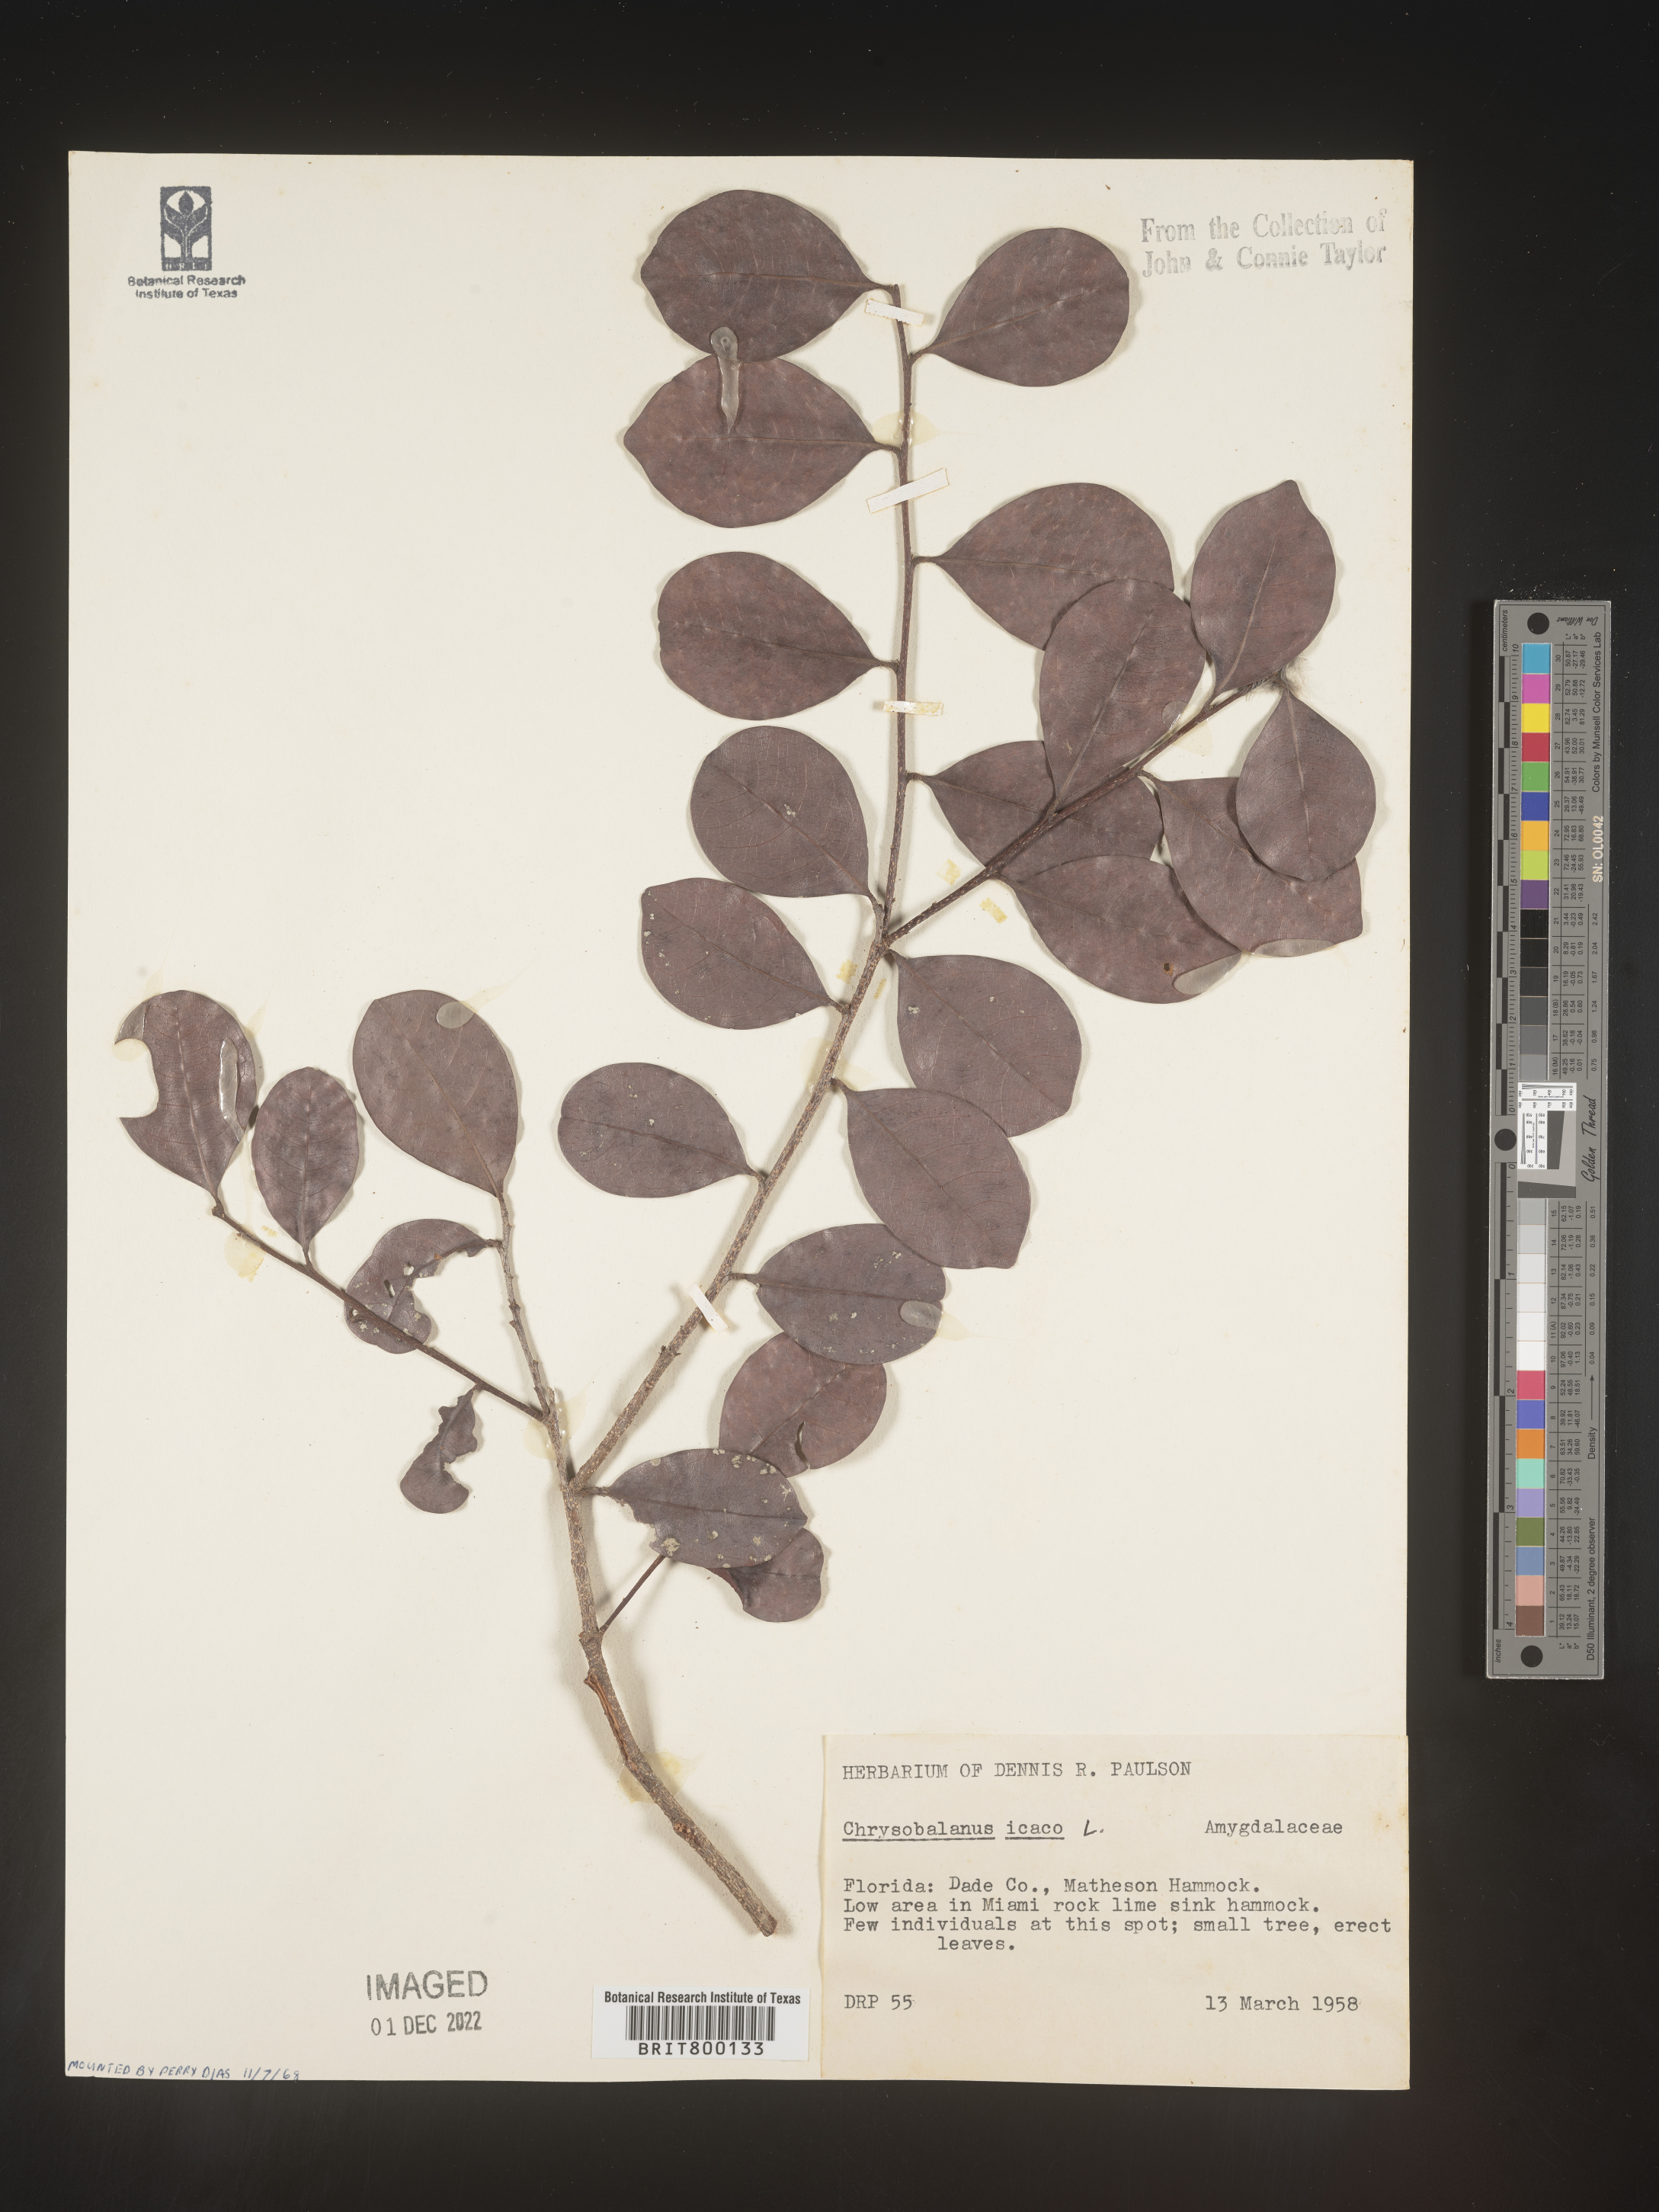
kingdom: Plantae
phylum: Tracheophyta
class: Magnoliopsida
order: Malpighiales
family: Chrysobalanaceae
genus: Chrysobalanus
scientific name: Chrysobalanus icaco
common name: Coco plum
